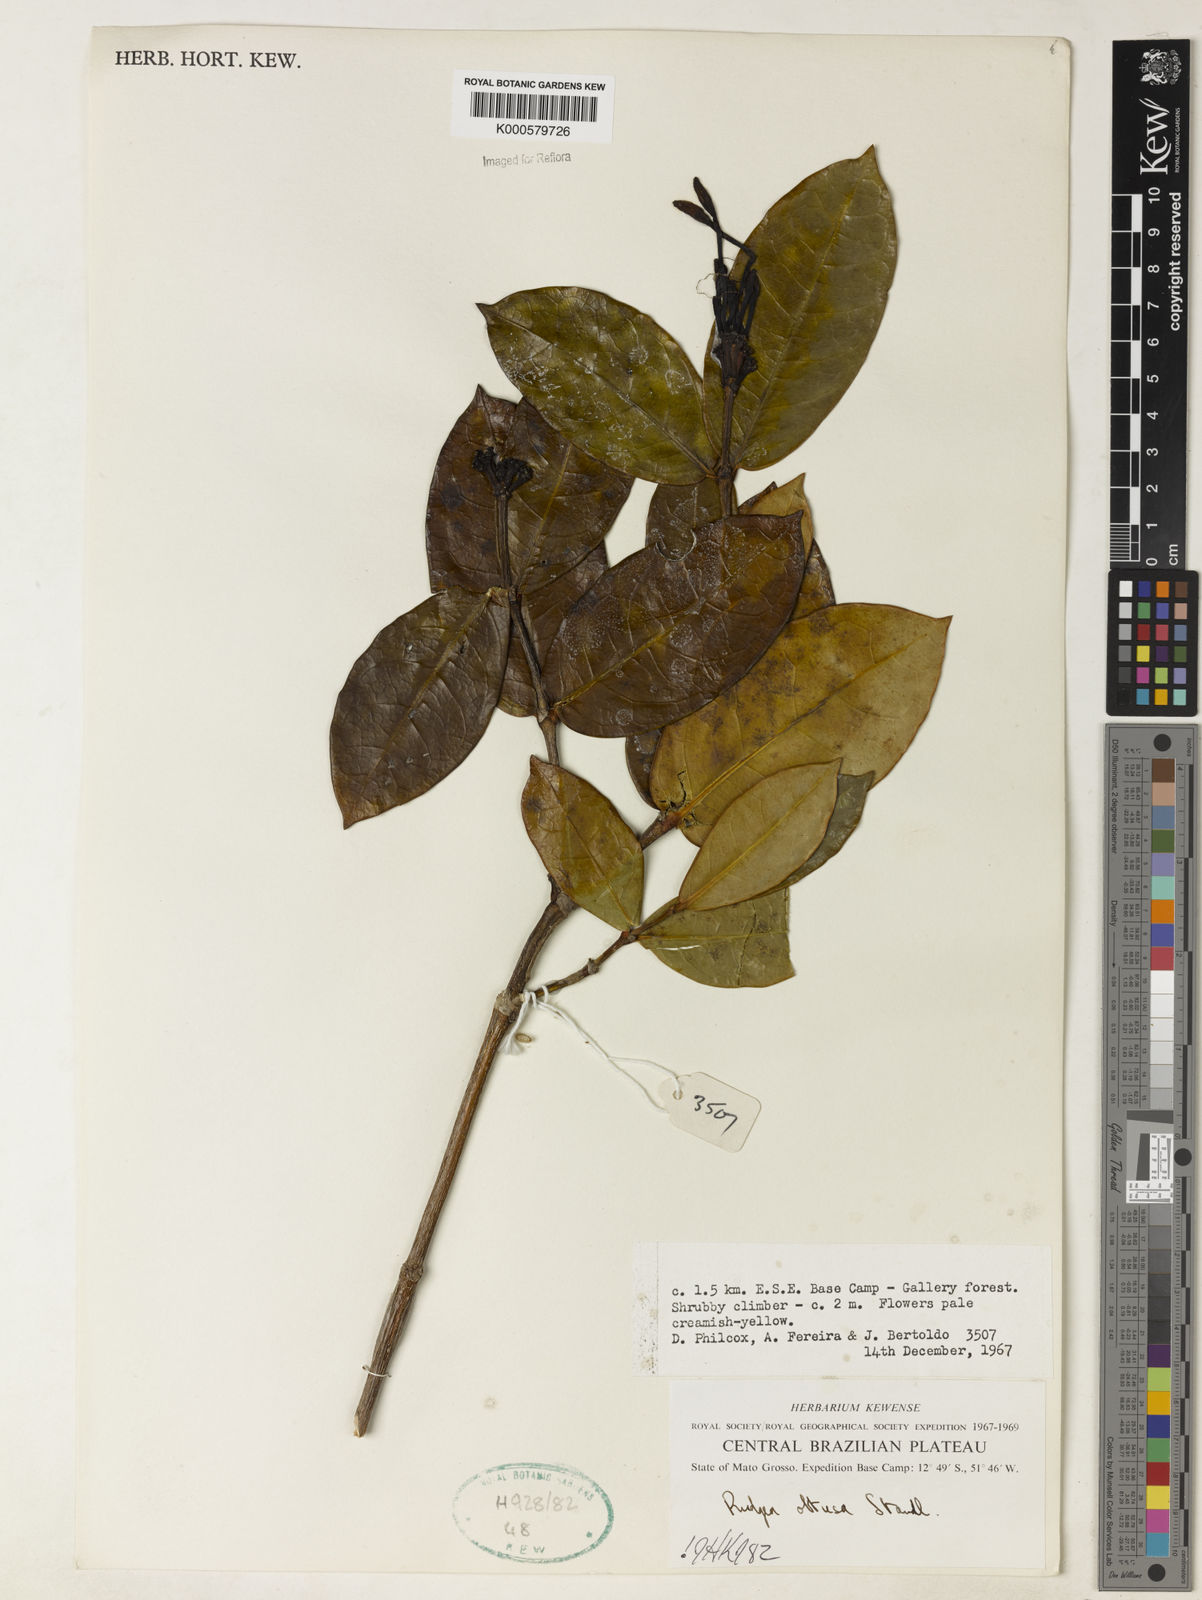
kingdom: Plantae
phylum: Tracheophyta
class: Magnoliopsida
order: Gentianales
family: Rubiaceae
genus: Rudgea
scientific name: Rudgea goyazensis
